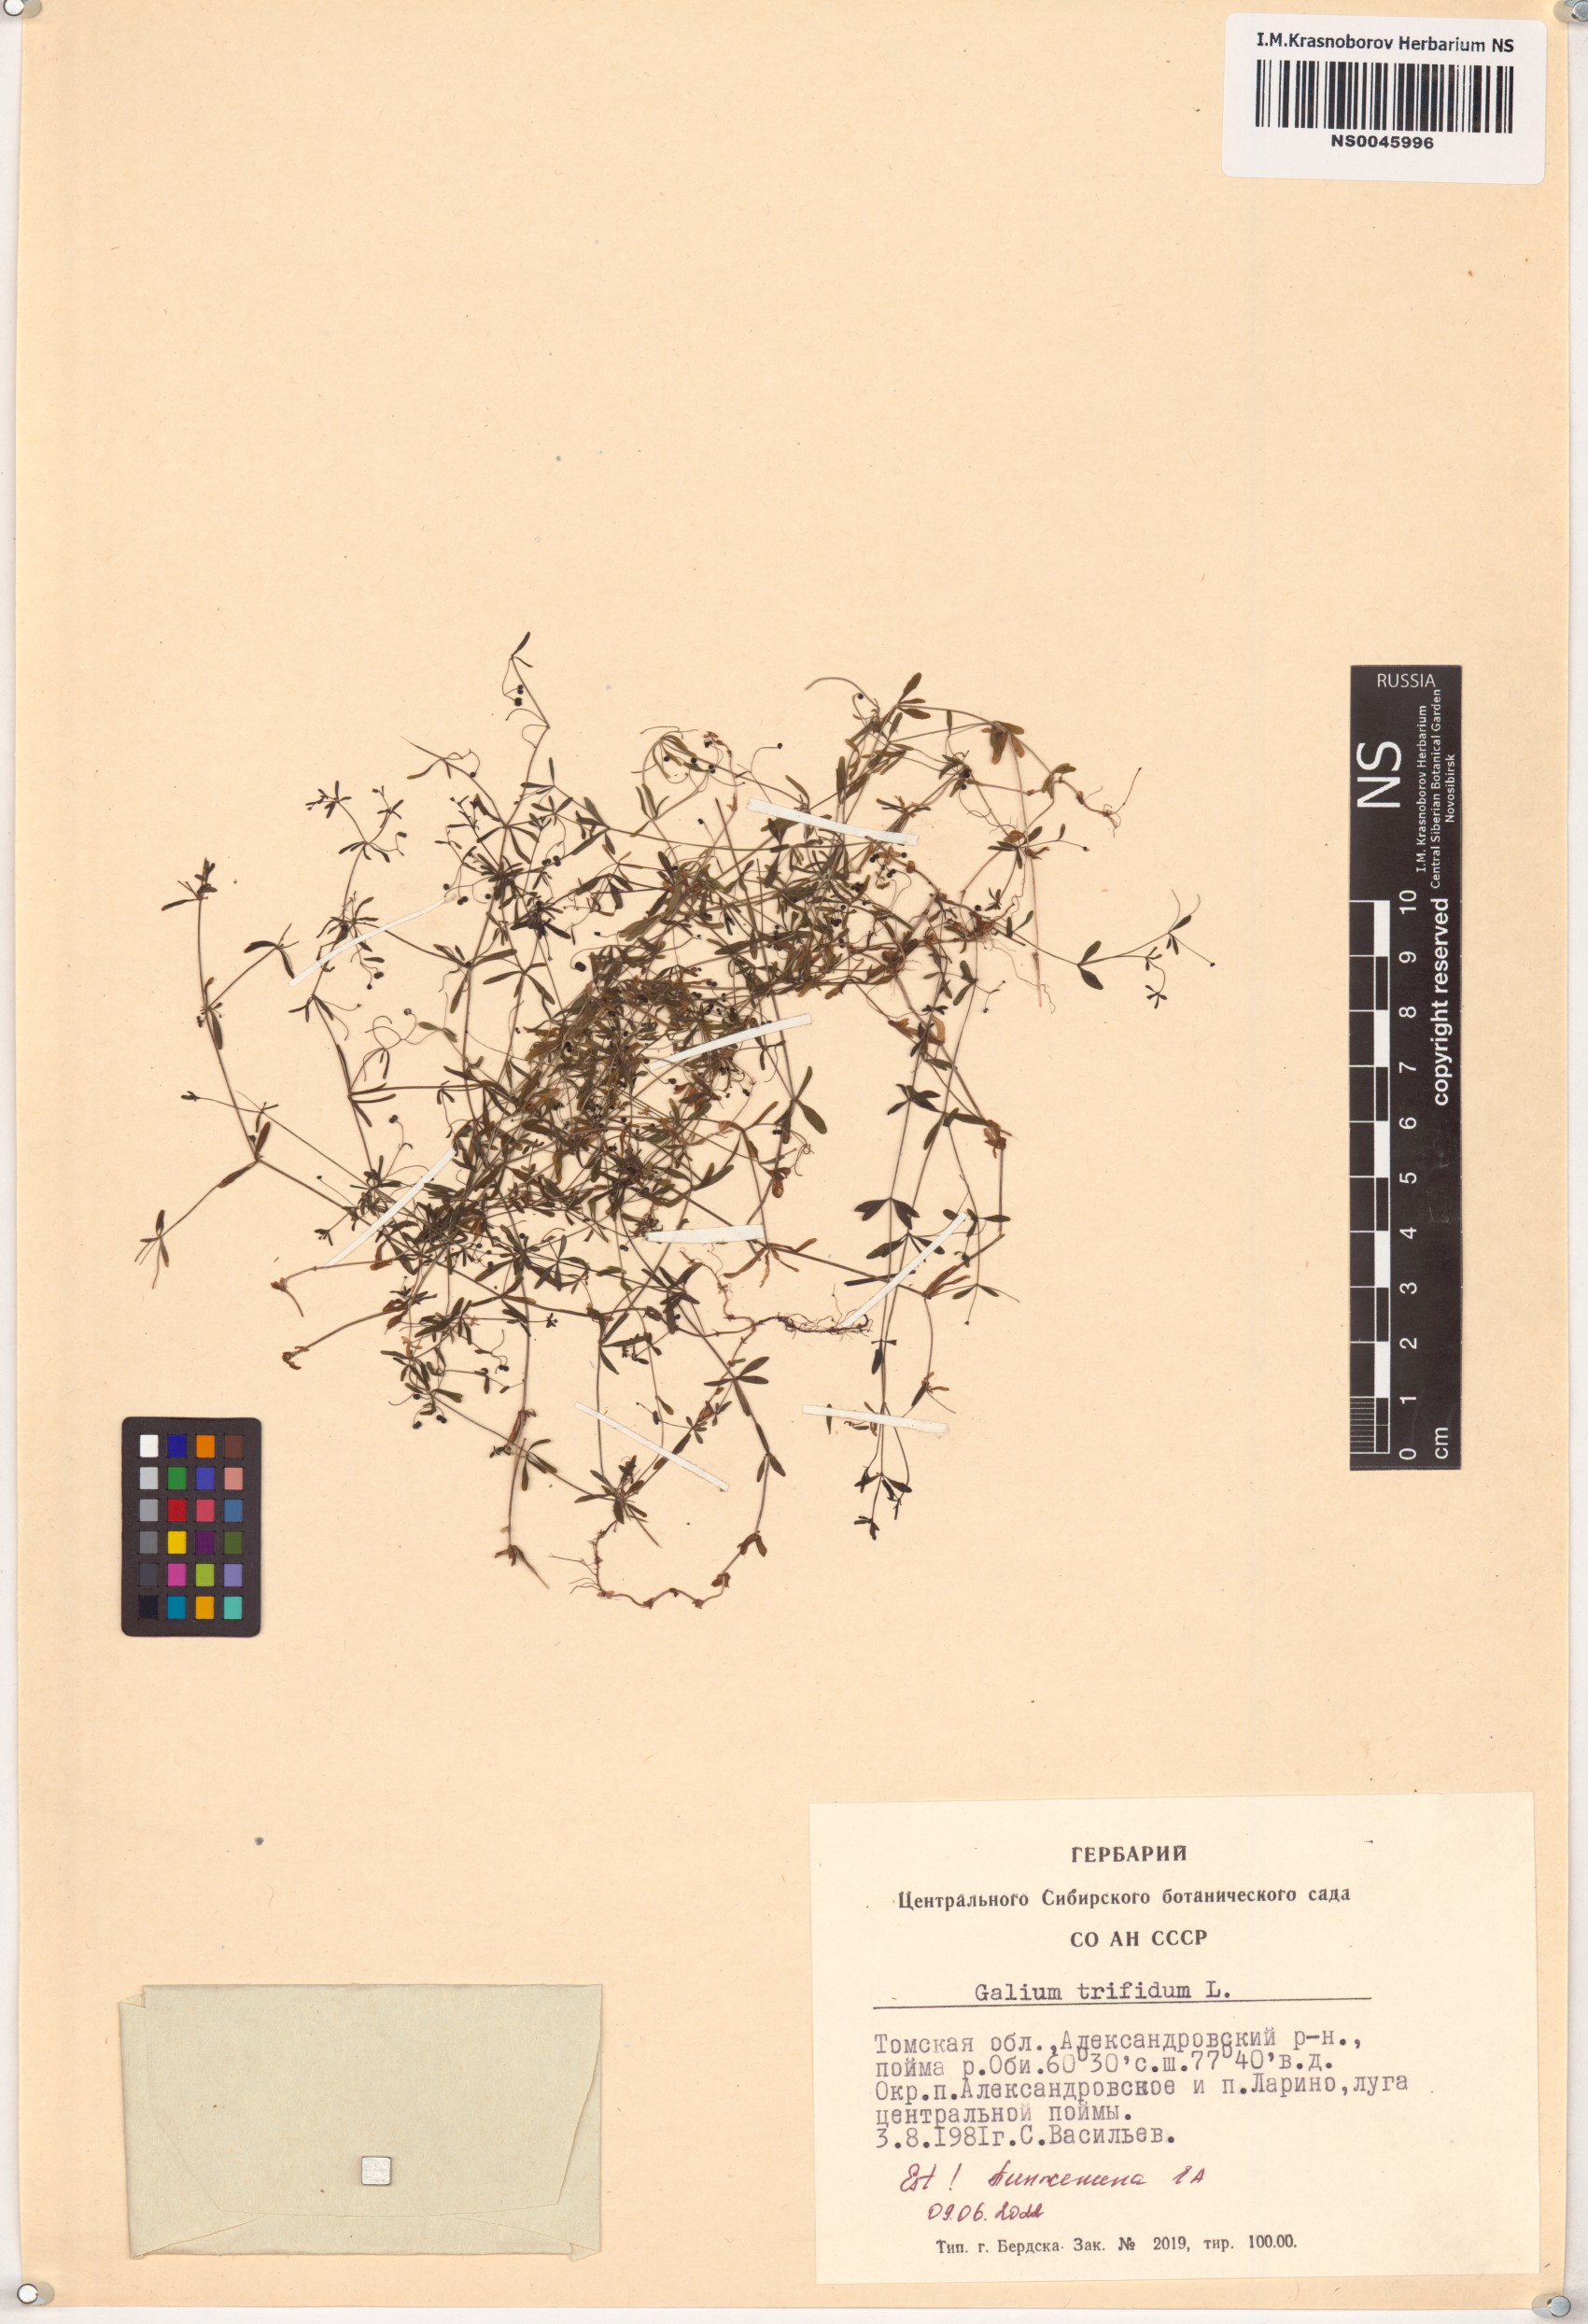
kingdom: Plantae
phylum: Tracheophyta
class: Magnoliopsida
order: Gentianales
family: Rubiaceae
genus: Galium
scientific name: Galium trifidum
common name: Small bedstraw
